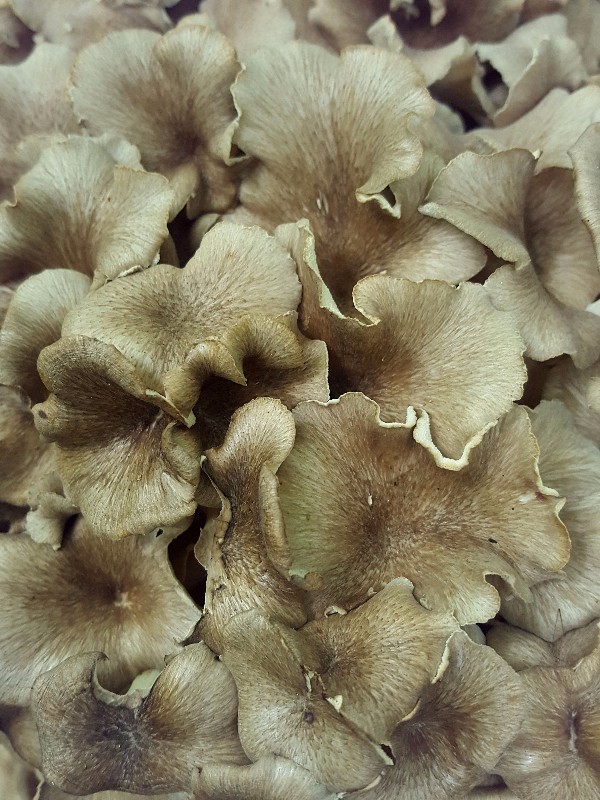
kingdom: Fungi
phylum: Basidiomycota
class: Agaricomycetes
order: Polyporales
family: Polyporaceae
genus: Polyporus
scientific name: Polyporus umbellatus
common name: skærmformet stilkporesvamp
